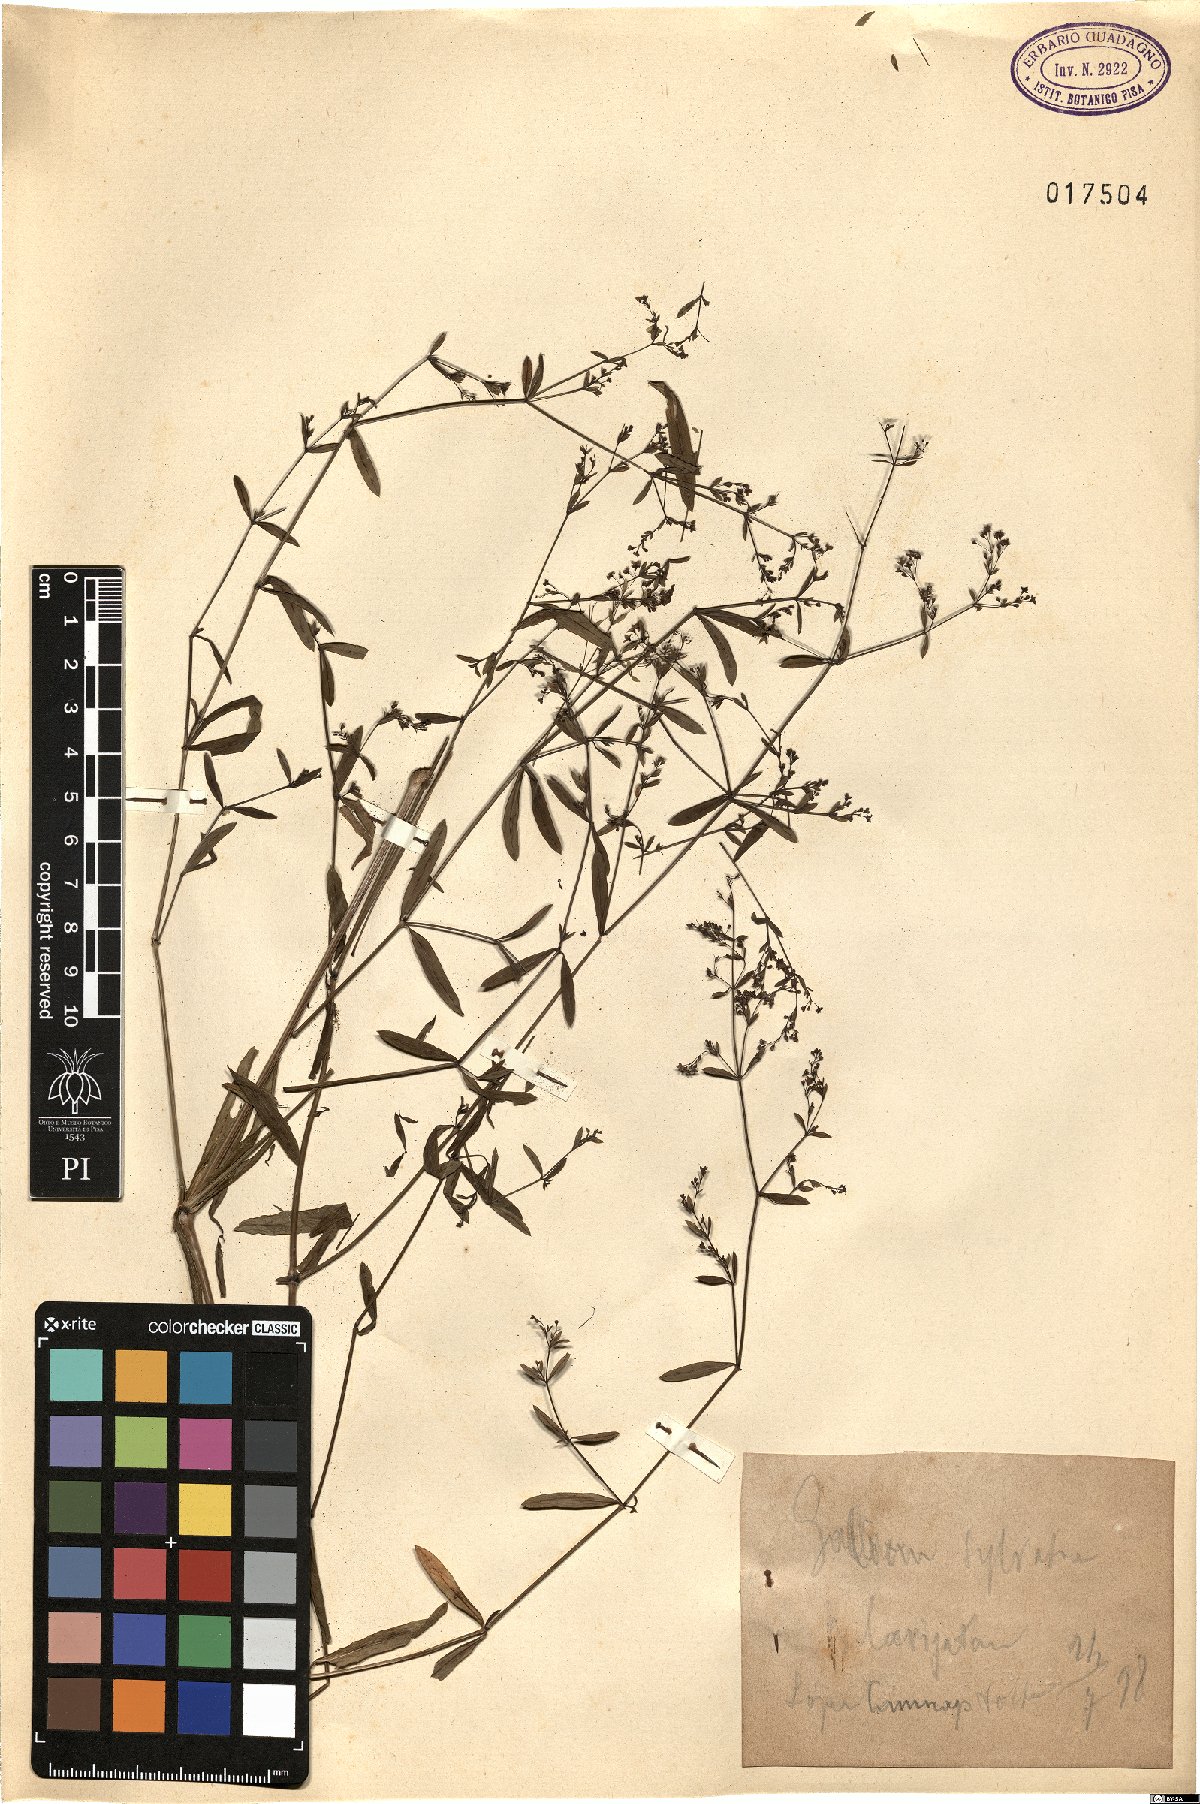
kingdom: Plantae
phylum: Tracheophyta
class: Magnoliopsida
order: Gentianales
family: Rubiaceae
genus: Galium
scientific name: Galium pumilum
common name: Slender bedstraw
